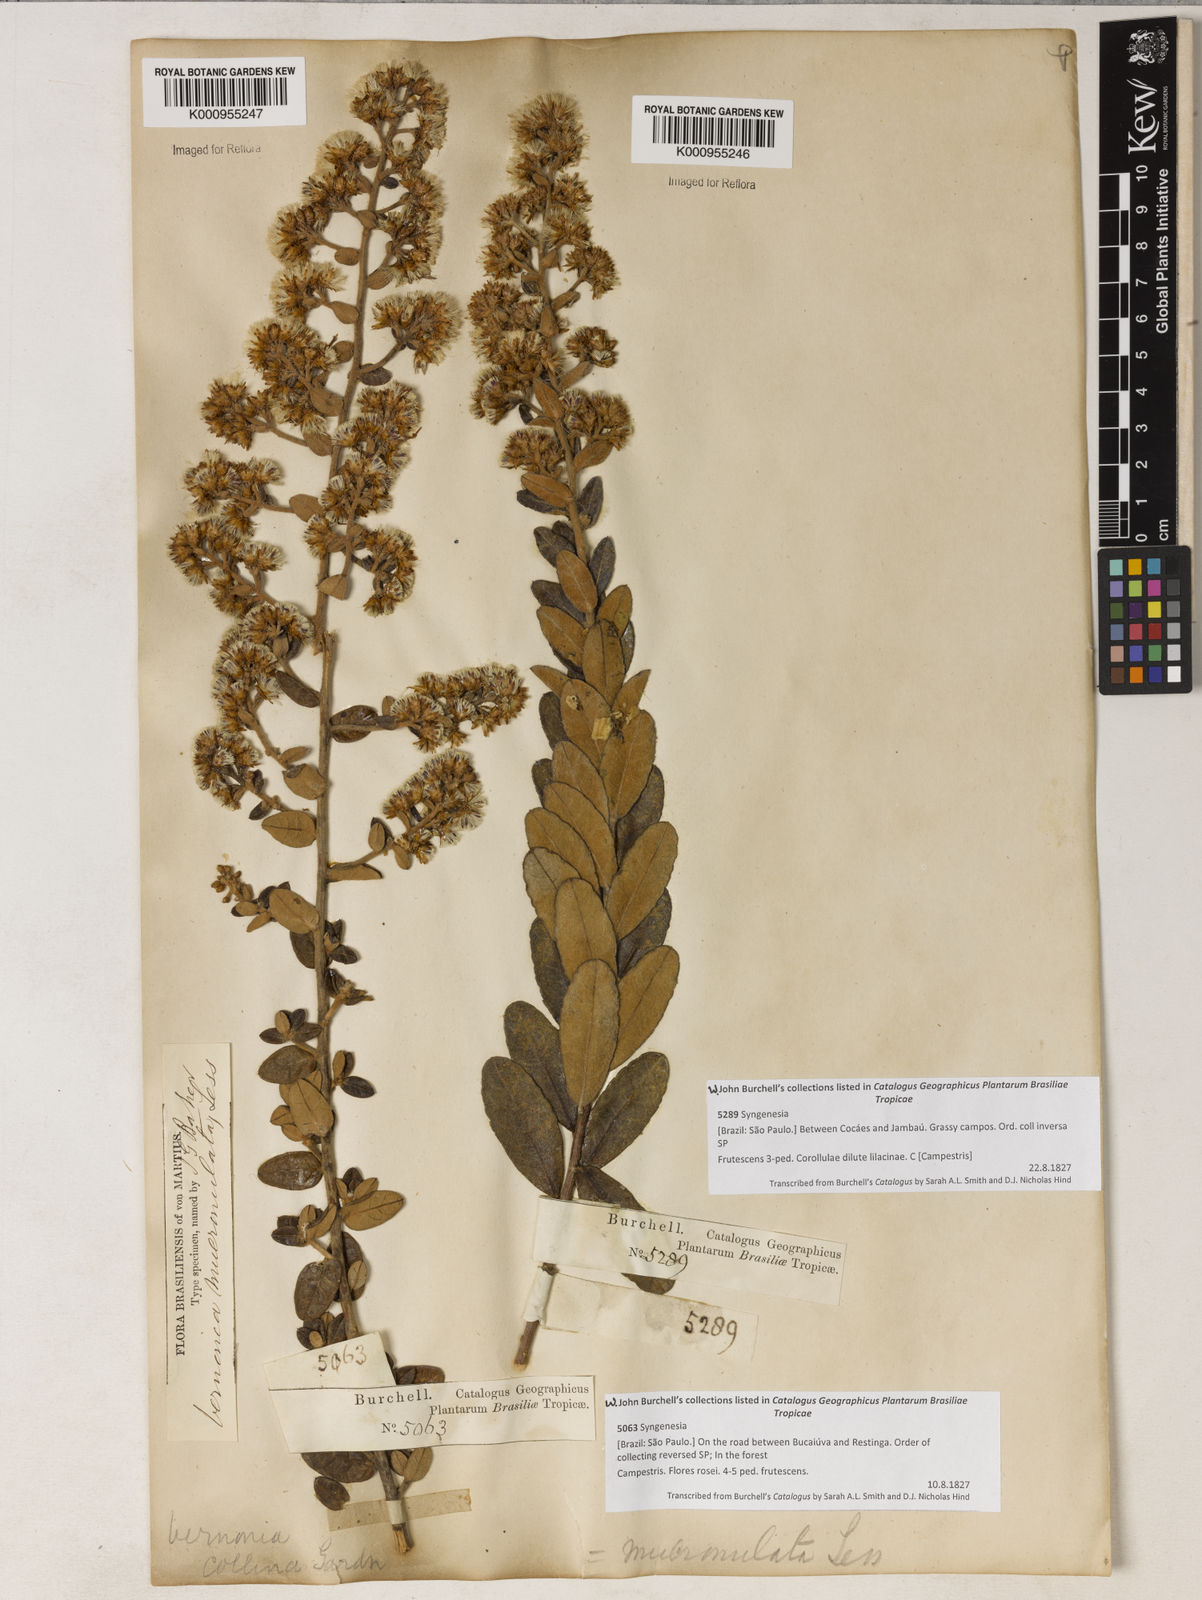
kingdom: Plantae
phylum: Tracheophyta
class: Magnoliopsida
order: Asterales
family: Asteraceae
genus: Vernonanthura
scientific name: Vernonanthura mucronulata
